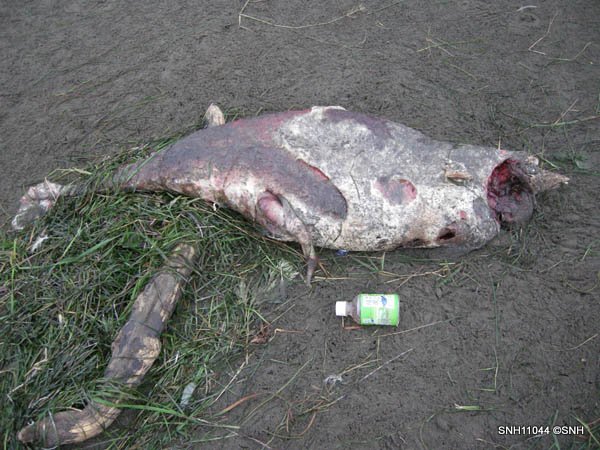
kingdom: Animalia
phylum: Chordata
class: Mammalia
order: Cetacea
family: Phocoenidae
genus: Phocoena
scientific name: Phocoena phocoena
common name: Harbour porpoise
